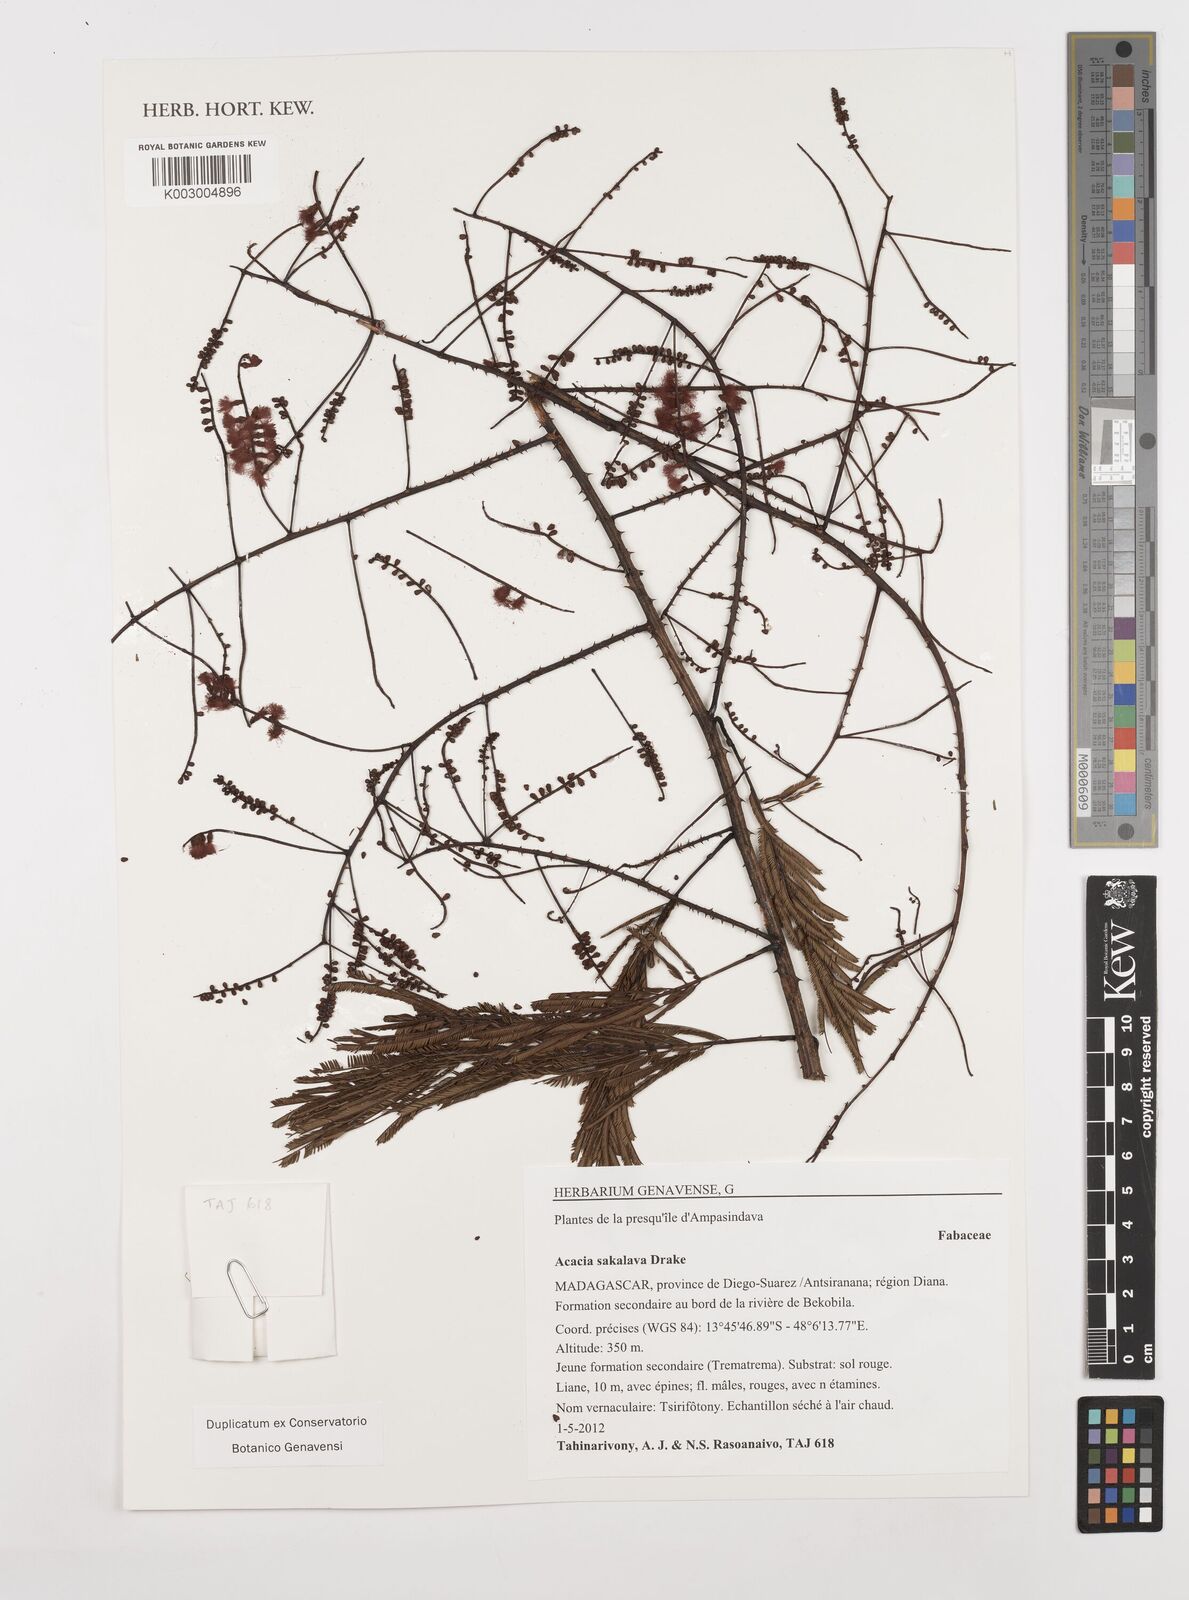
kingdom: Plantae
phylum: Tracheophyta
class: Magnoliopsida
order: Fabales
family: Fabaceae
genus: Senegalia
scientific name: Senegalia sakalava
